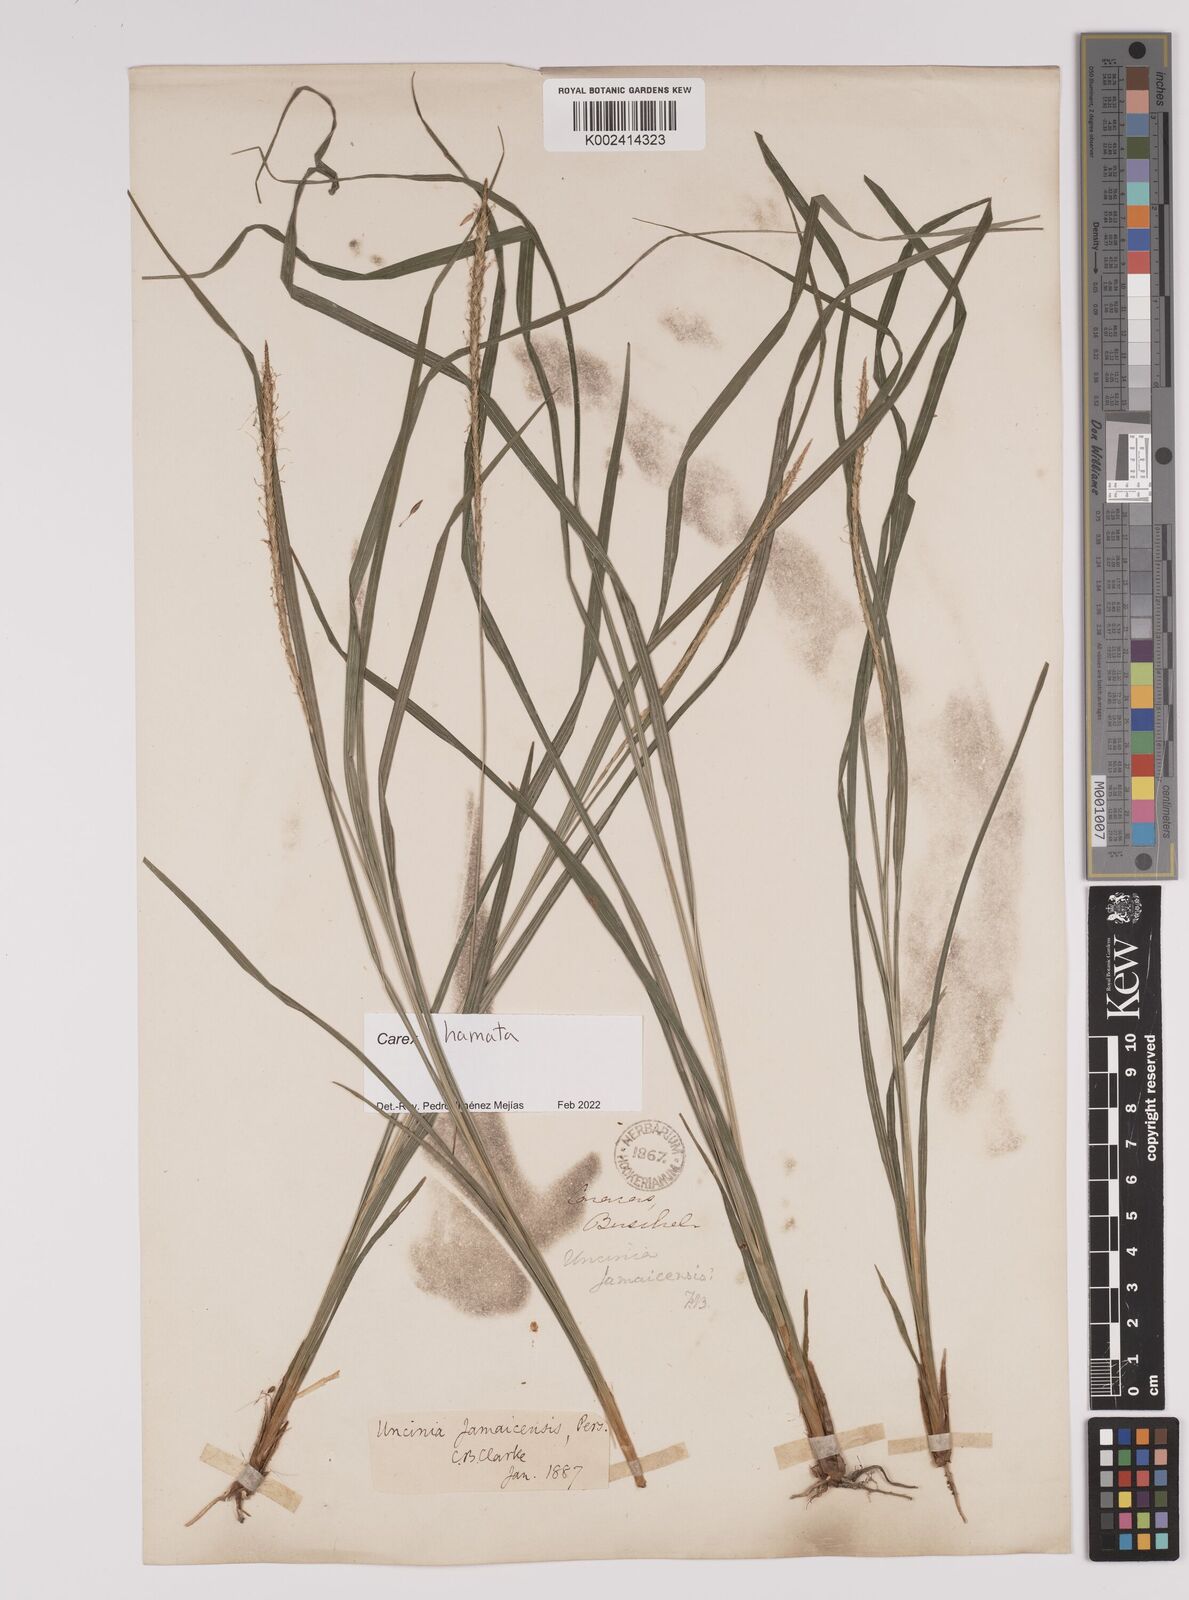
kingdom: Plantae
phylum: Tracheophyta
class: Liliopsida
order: Poales
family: Cyperaceae
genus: Carex
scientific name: Carex hamata
